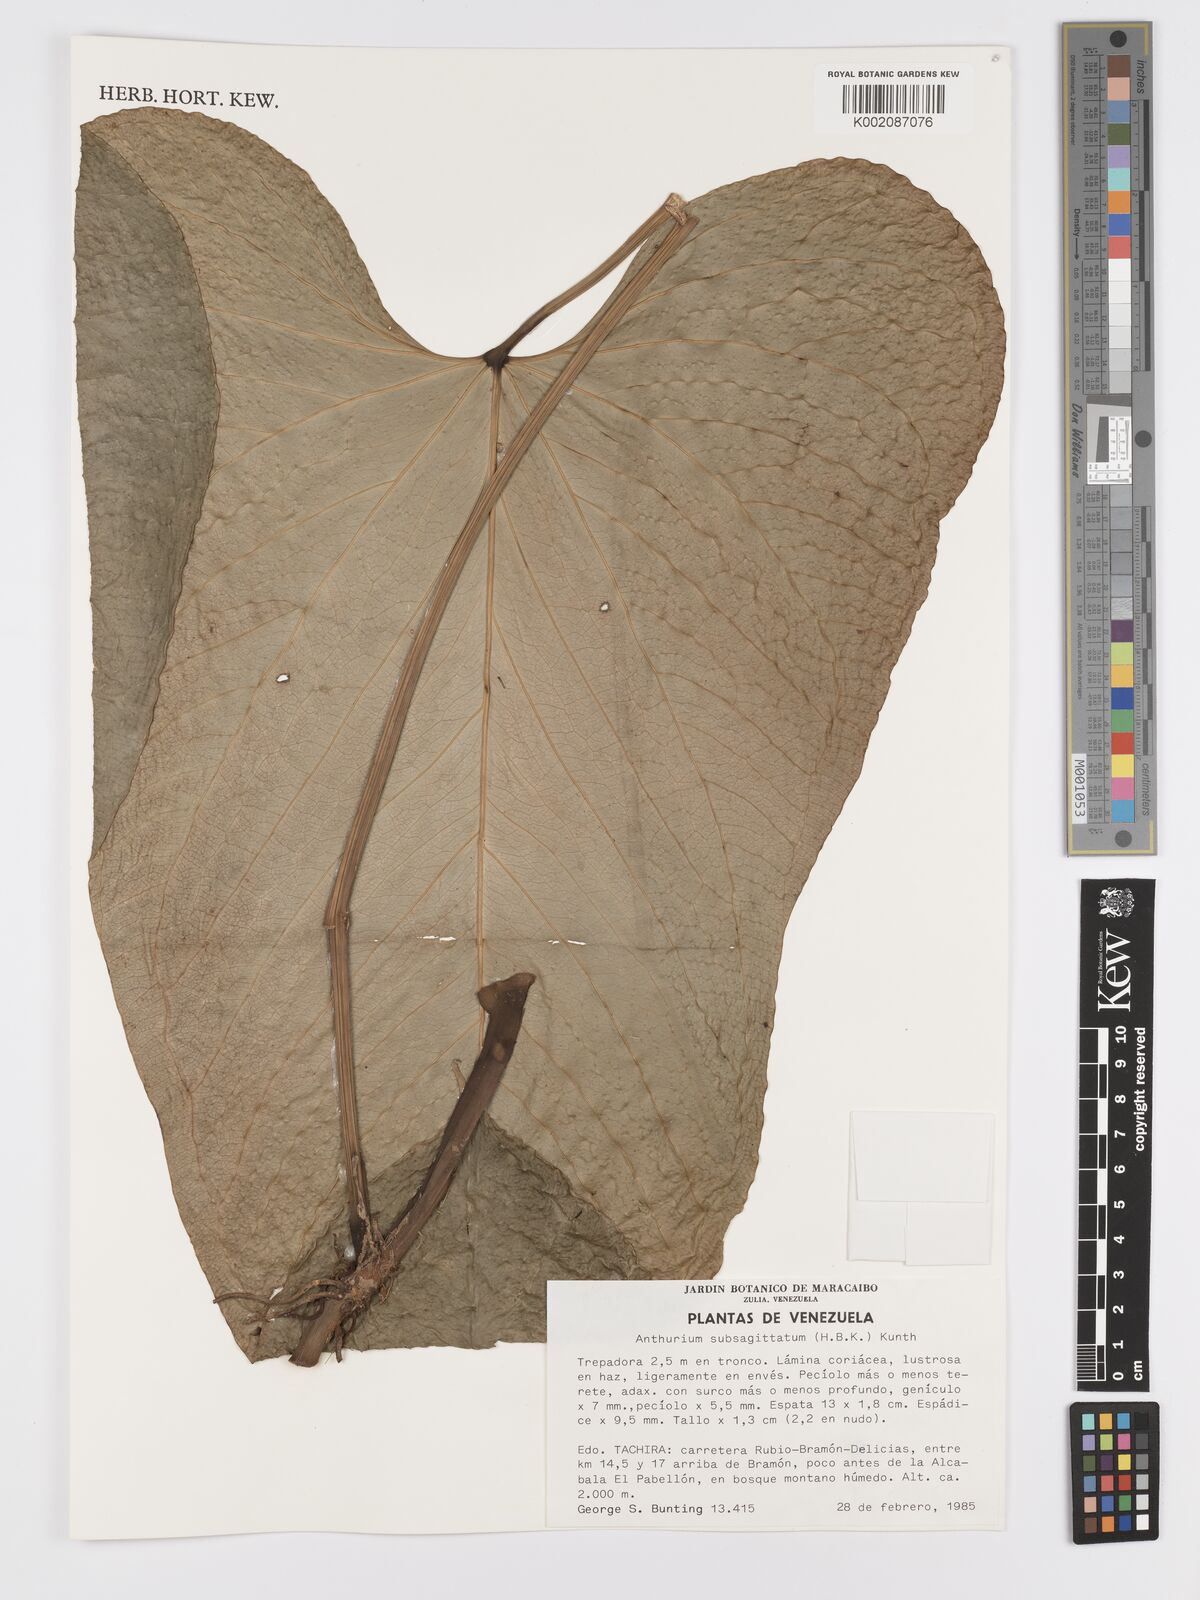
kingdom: Plantae
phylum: Tracheophyta
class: Liliopsida
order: Alismatales
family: Araceae
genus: Anthurium
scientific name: Anthurium
